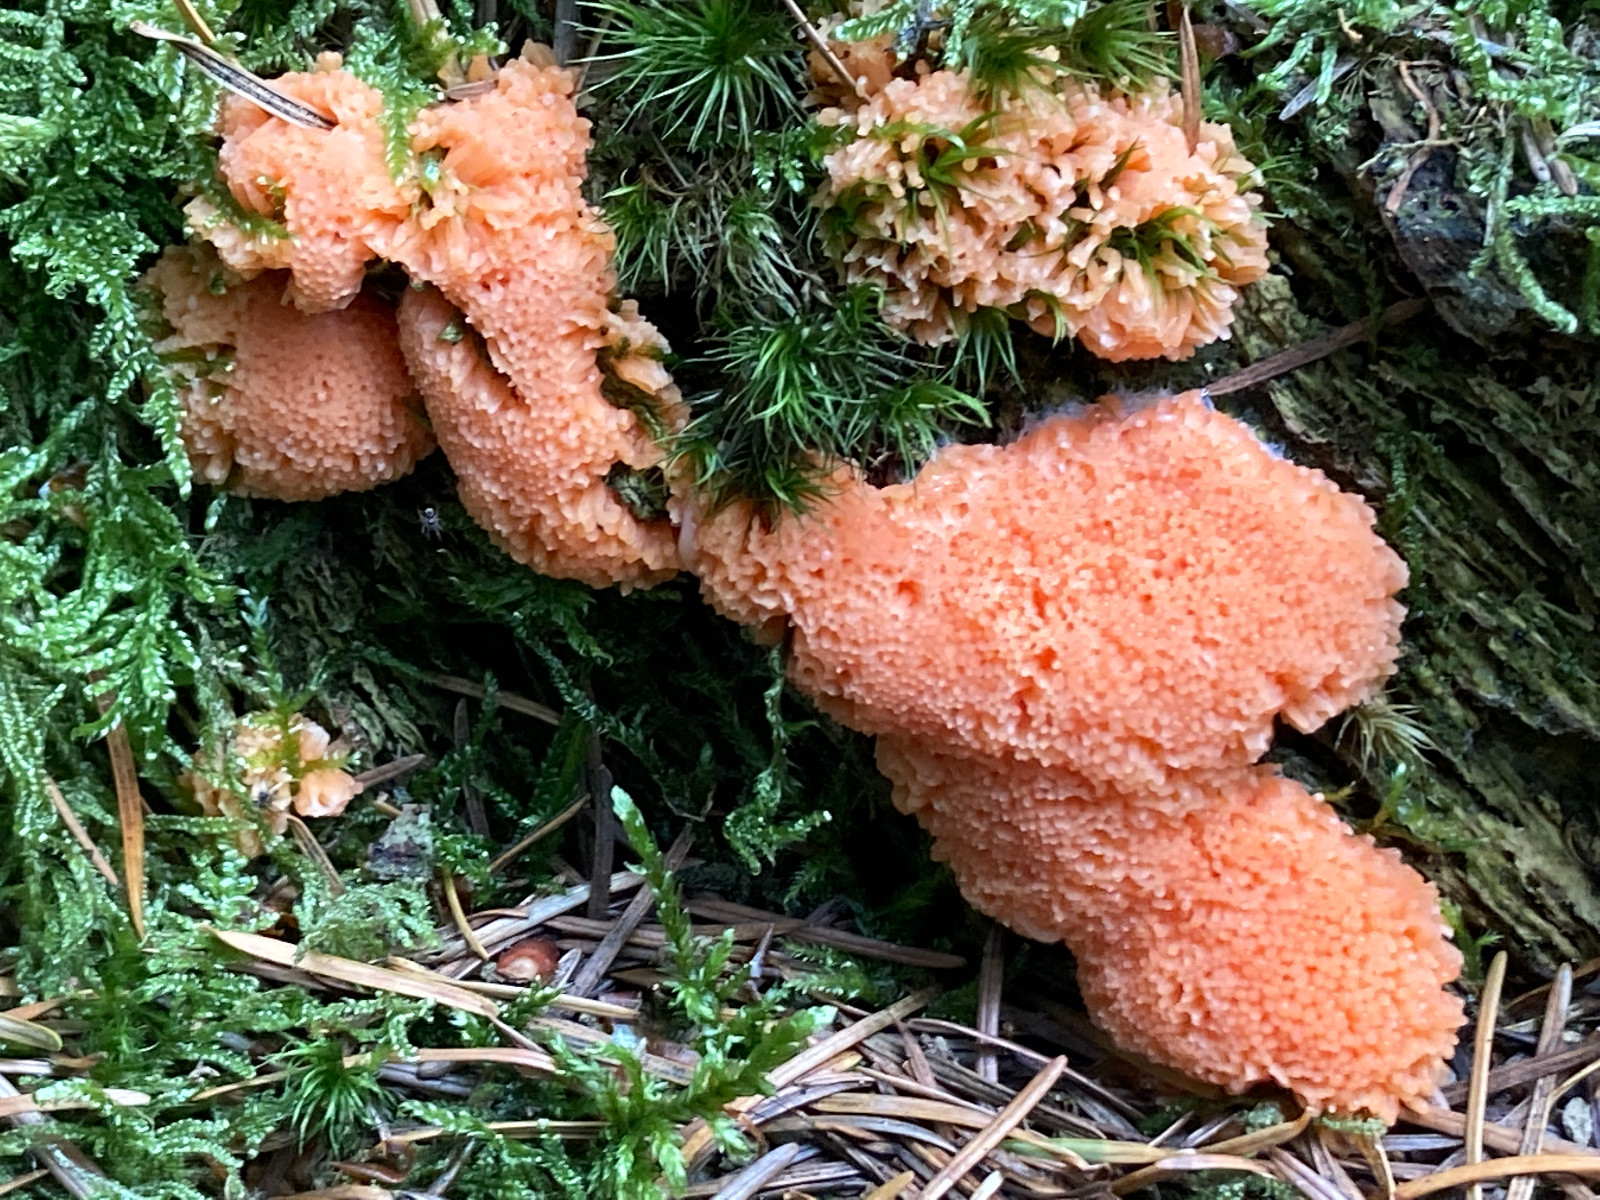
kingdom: Protozoa
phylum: Mycetozoa
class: Myxomycetes
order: Cribrariales
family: Tubiferaceae
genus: Tubifera
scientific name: Tubifera ferruginosa
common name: kanel-støvrør
